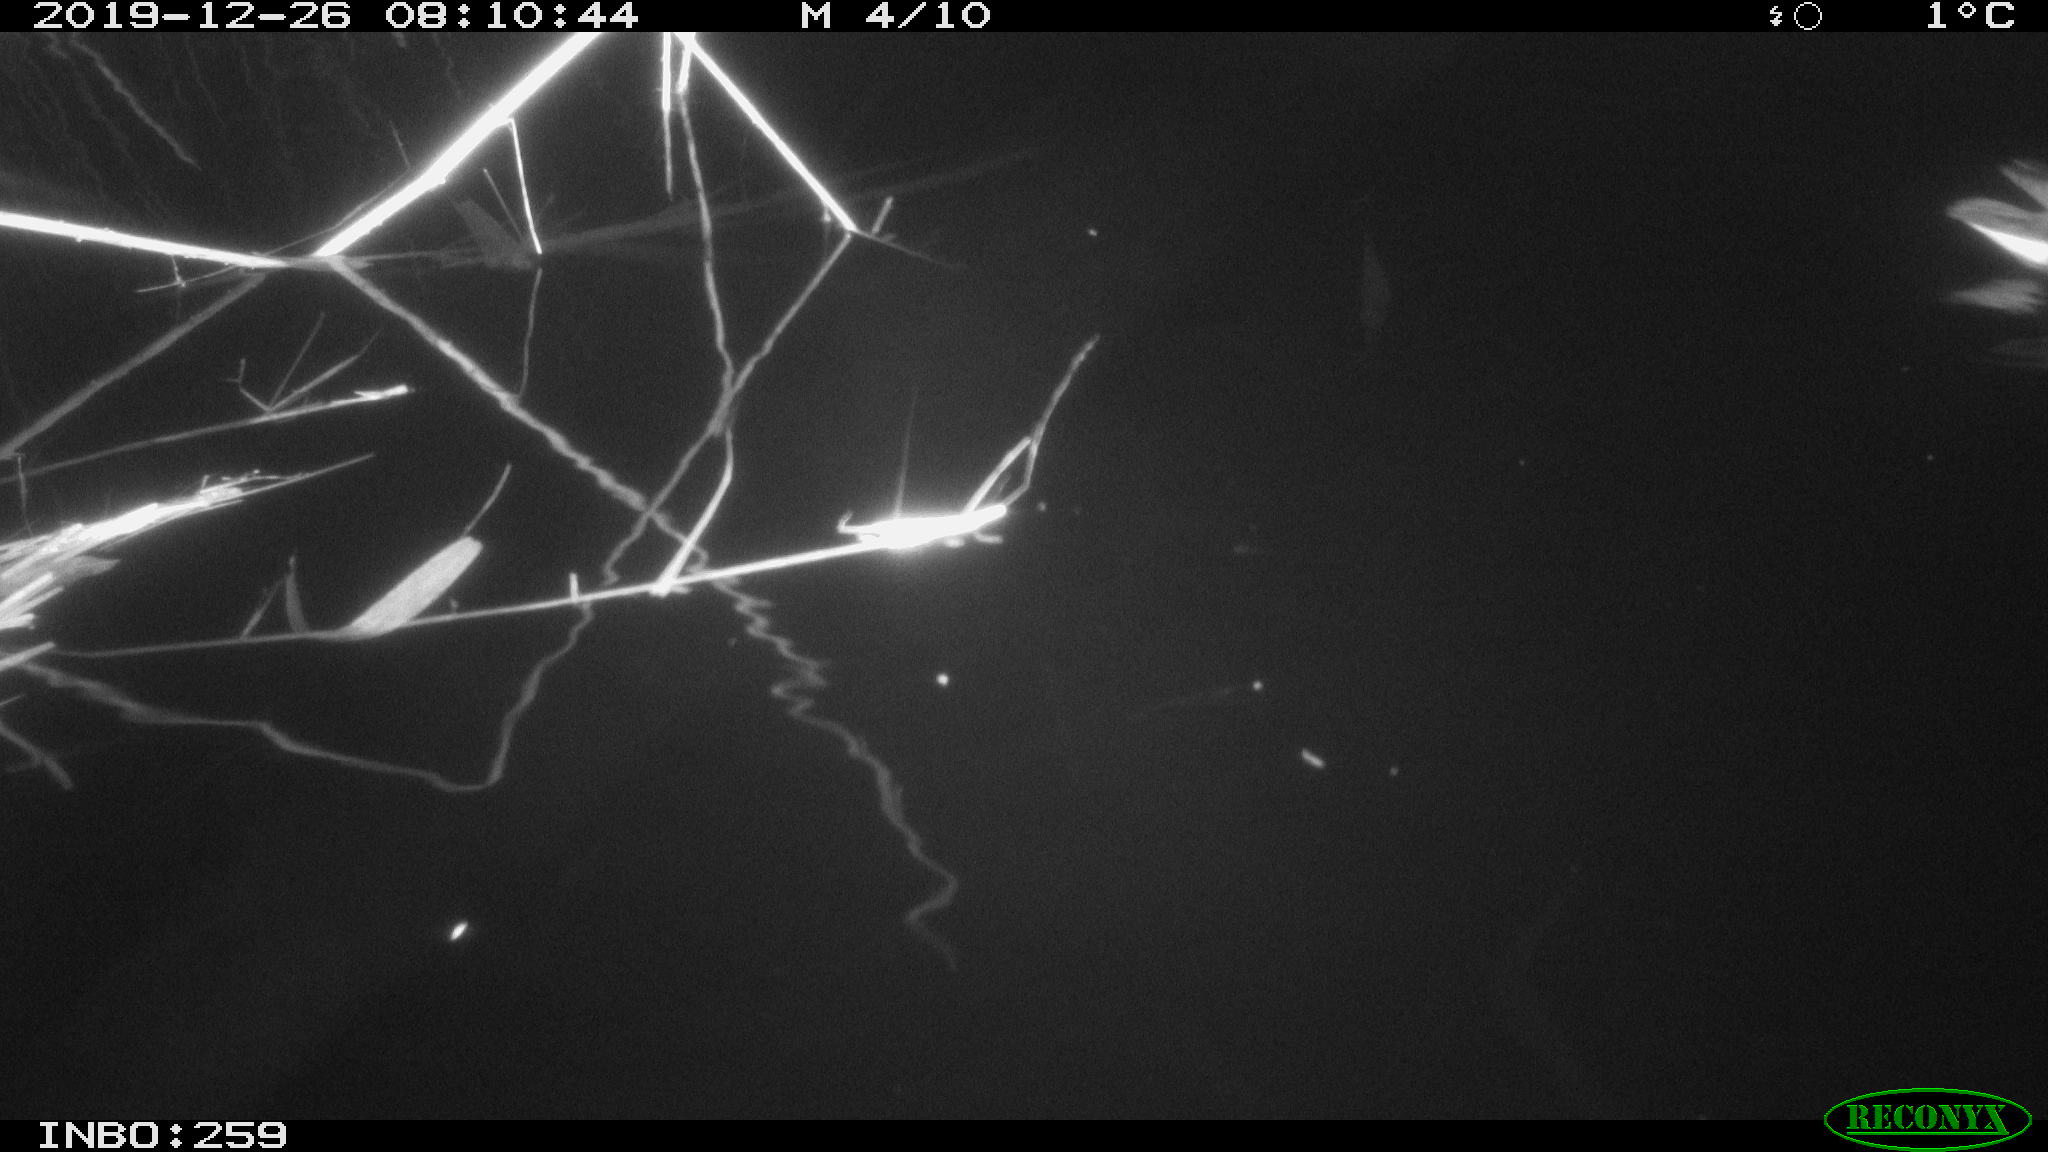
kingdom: Animalia
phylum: Chordata
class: Aves
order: Gruiformes
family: Rallidae
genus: Gallinula
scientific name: Gallinula chloropus
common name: Common moorhen
